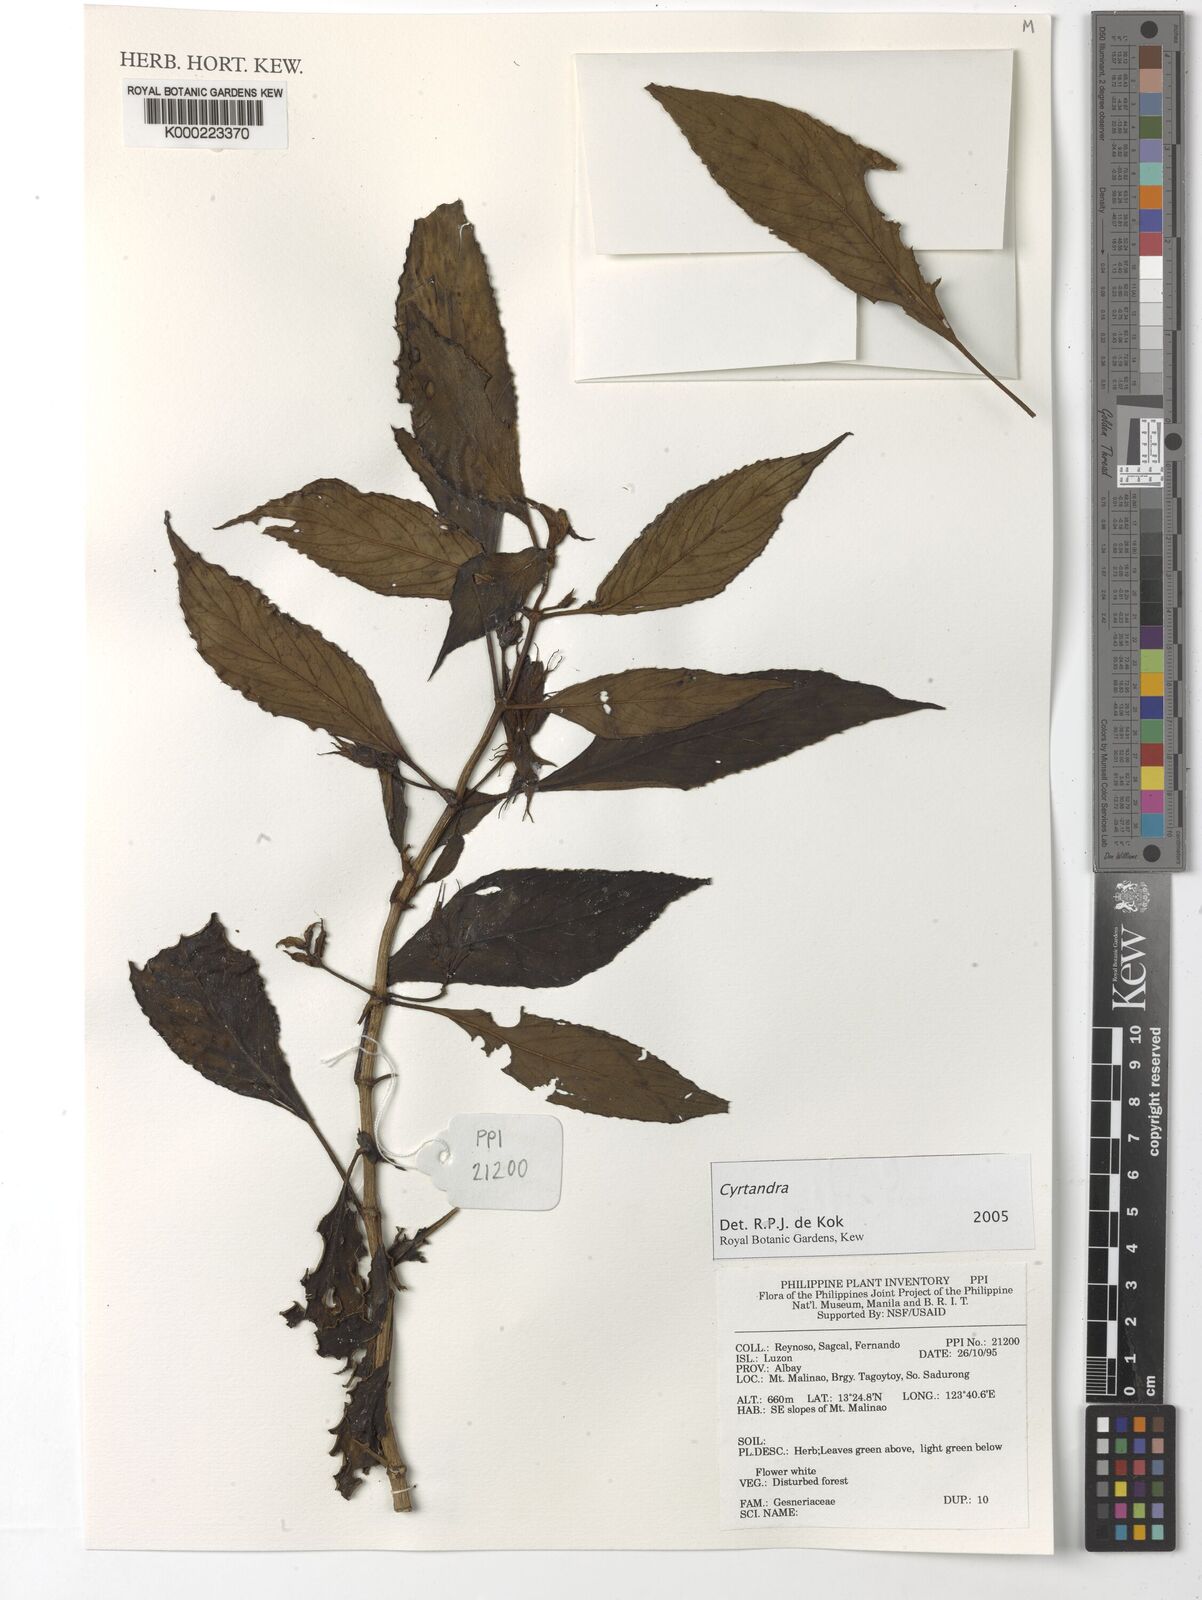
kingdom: Plantae
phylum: Tracheophyta
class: Magnoliopsida
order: Lamiales
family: Gesneriaceae
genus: Cyrtandra
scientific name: Cyrtandra
